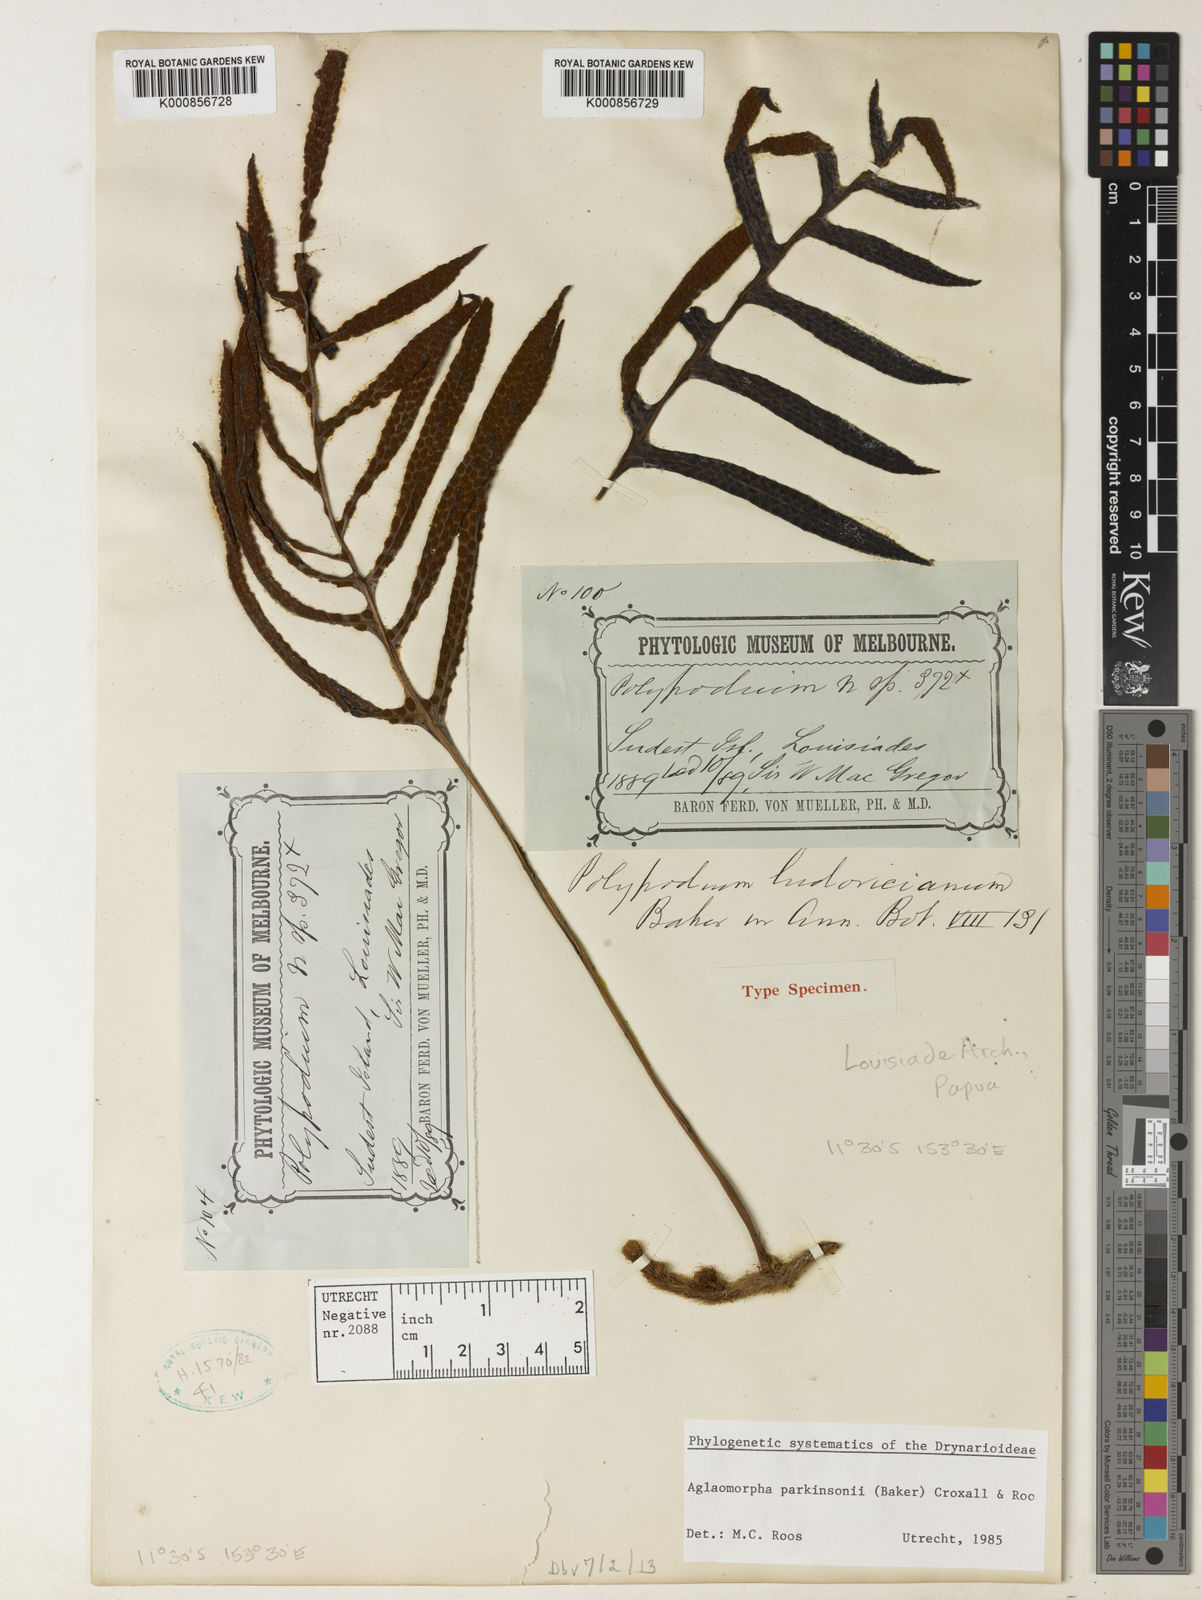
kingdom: Animalia
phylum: Arthropoda
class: Insecta
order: Lepidoptera
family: Erebidae
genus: Aglaomorpha
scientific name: Aglaomorpha
